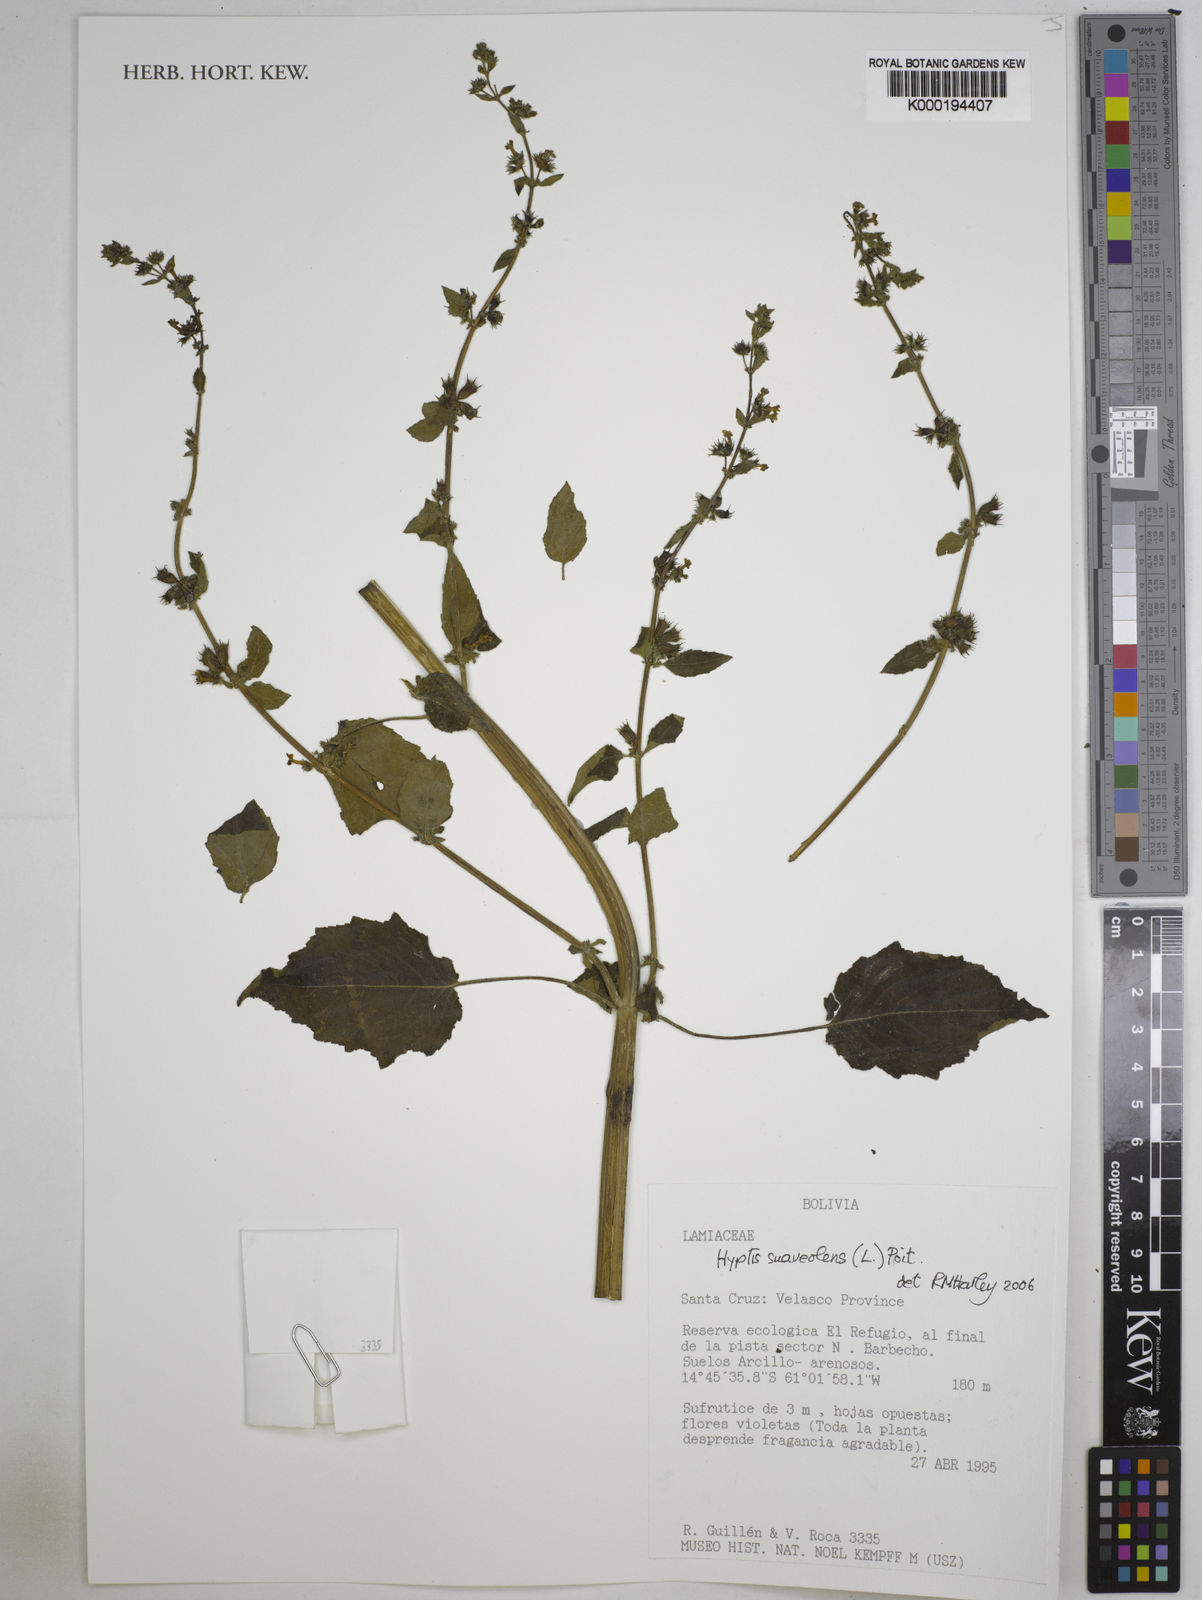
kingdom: Plantae
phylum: Tracheophyta
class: Magnoliopsida
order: Lamiales
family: Lamiaceae
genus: Mesosphaerum
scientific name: Mesosphaerum suaveolens
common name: Pignut
